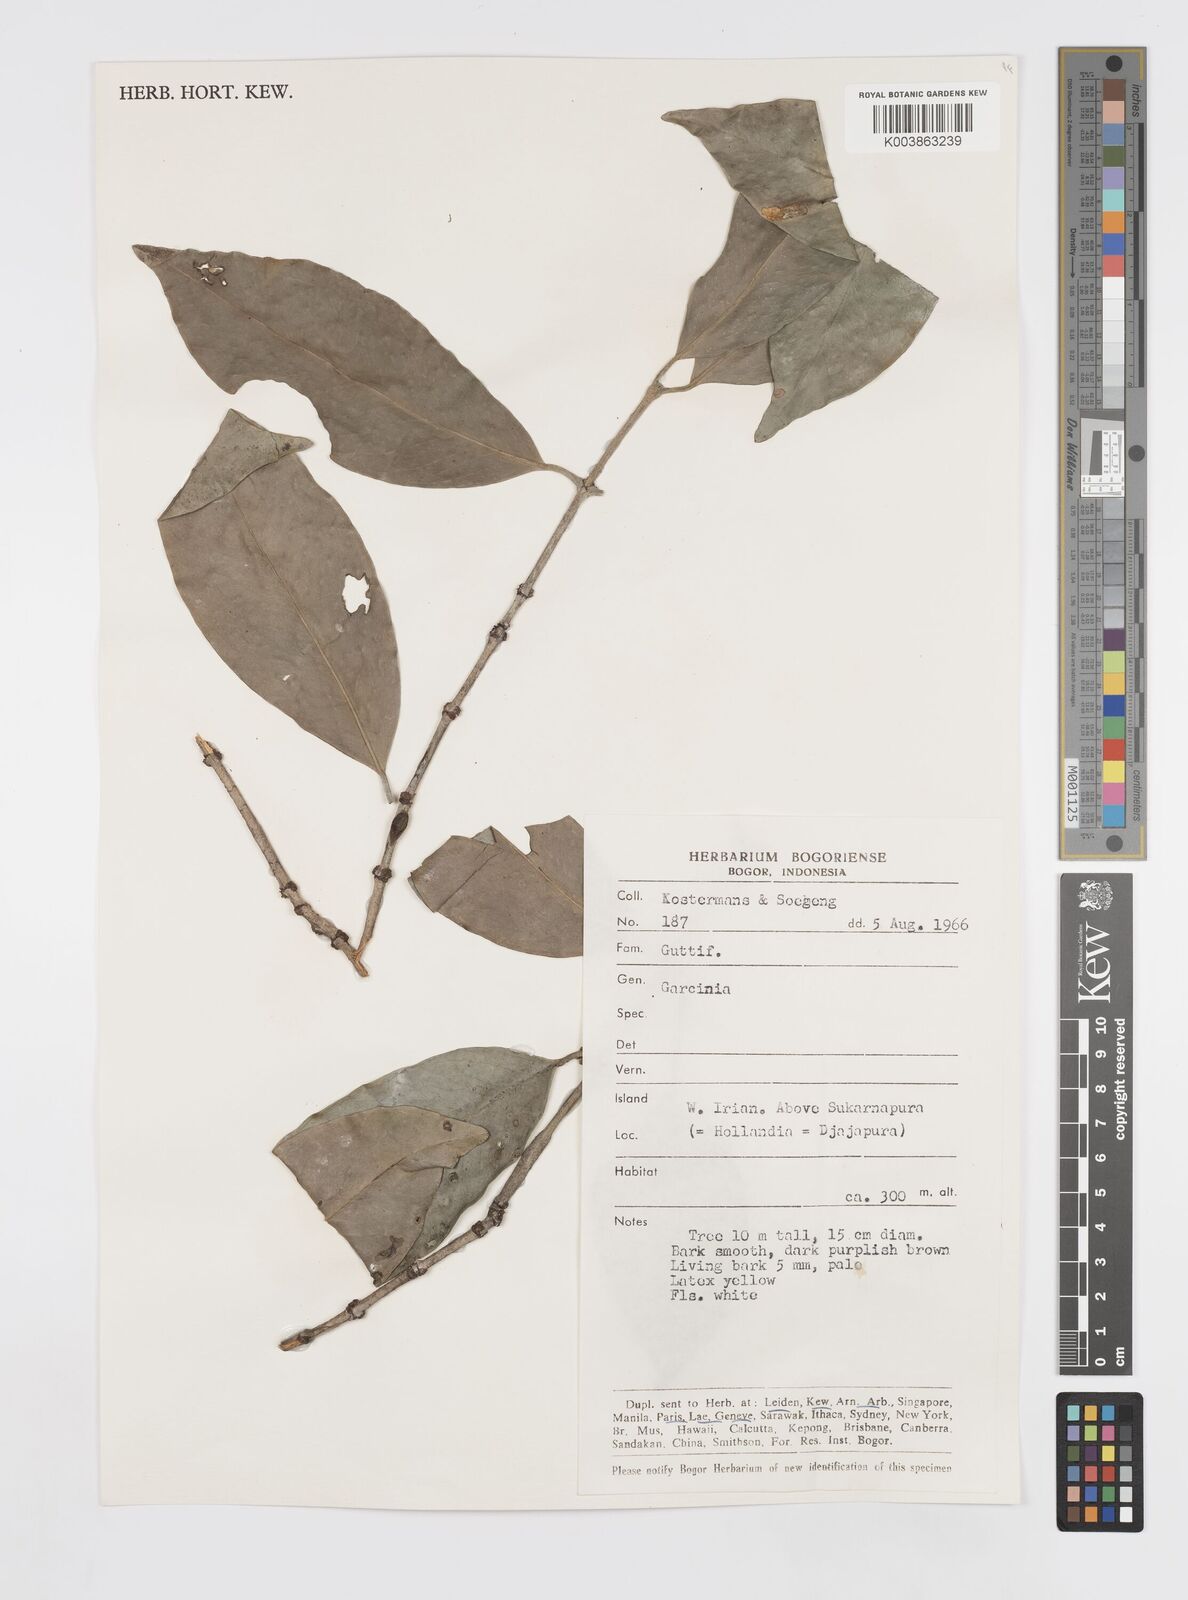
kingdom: Plantae
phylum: Tracheophyta
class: Magnoliopsida
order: Malpighiales
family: Clusiaceae
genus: Garcinia
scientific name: Garcinia
